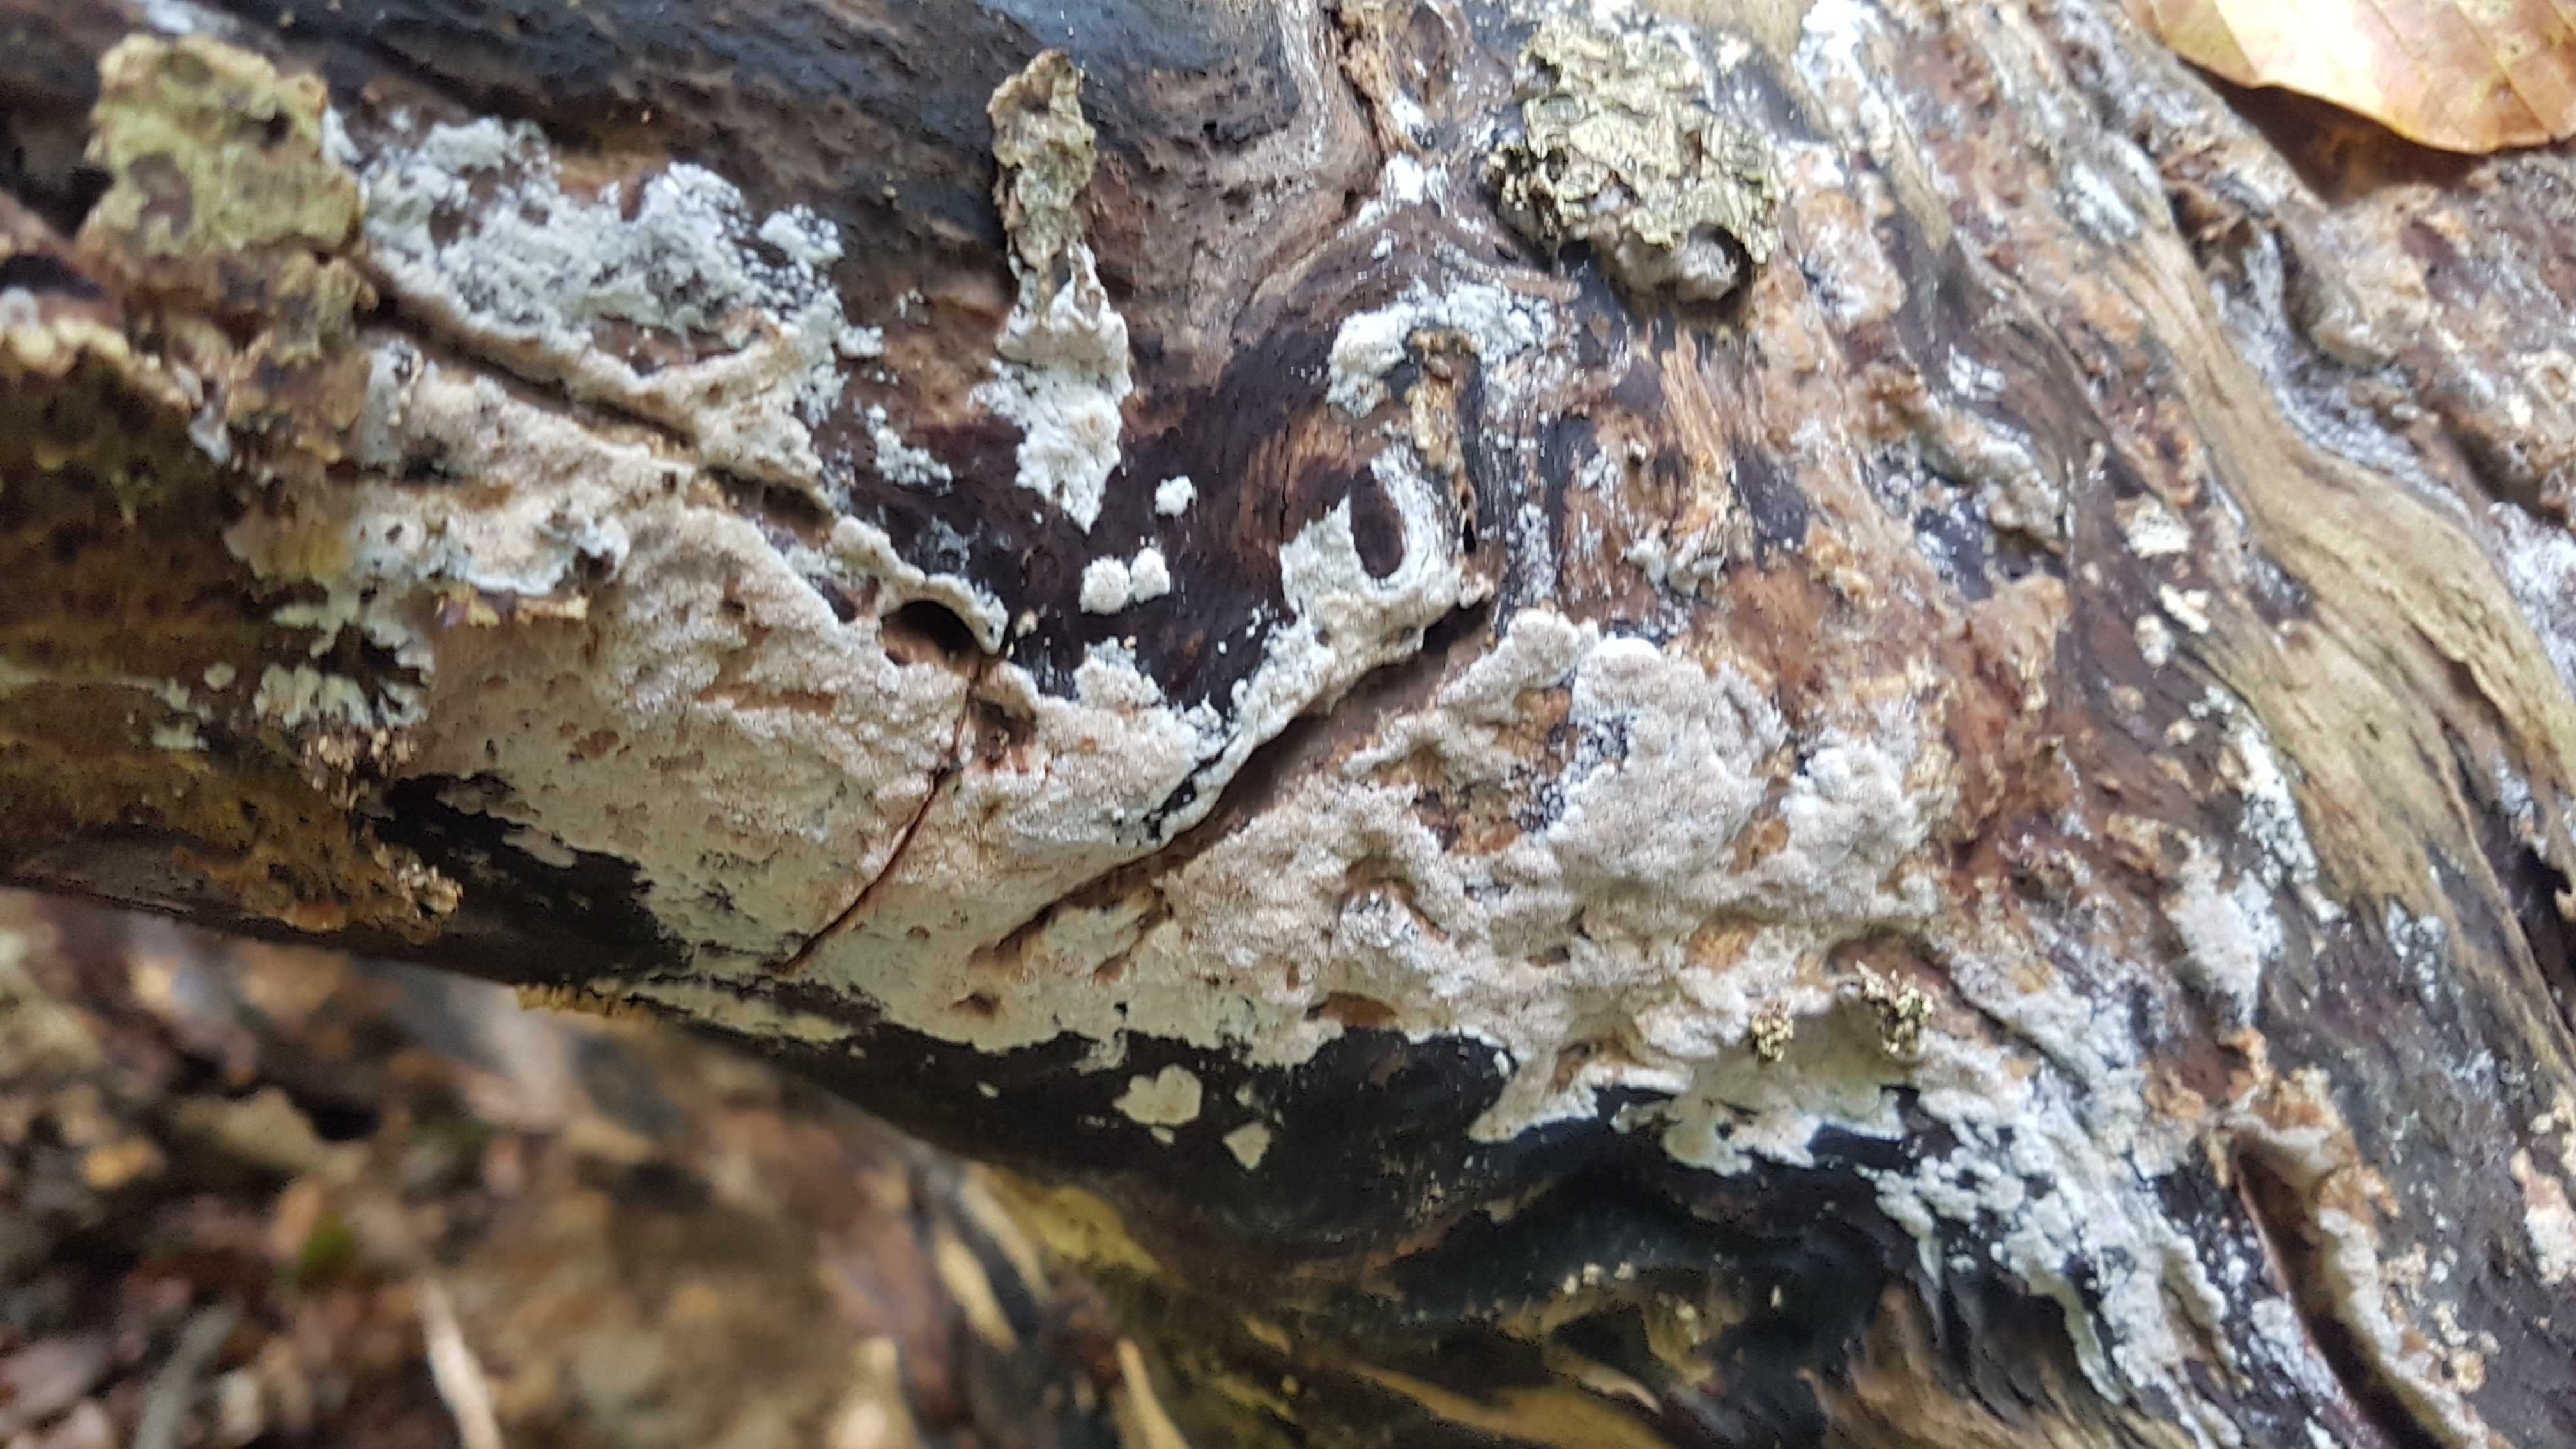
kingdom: Fungi
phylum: Basidiomycota
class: Agaricomycetes
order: Polyporales
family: Meruliaceae
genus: Mycoacia
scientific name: Mycoacia gilvescens
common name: rosa pastelporesvamp
